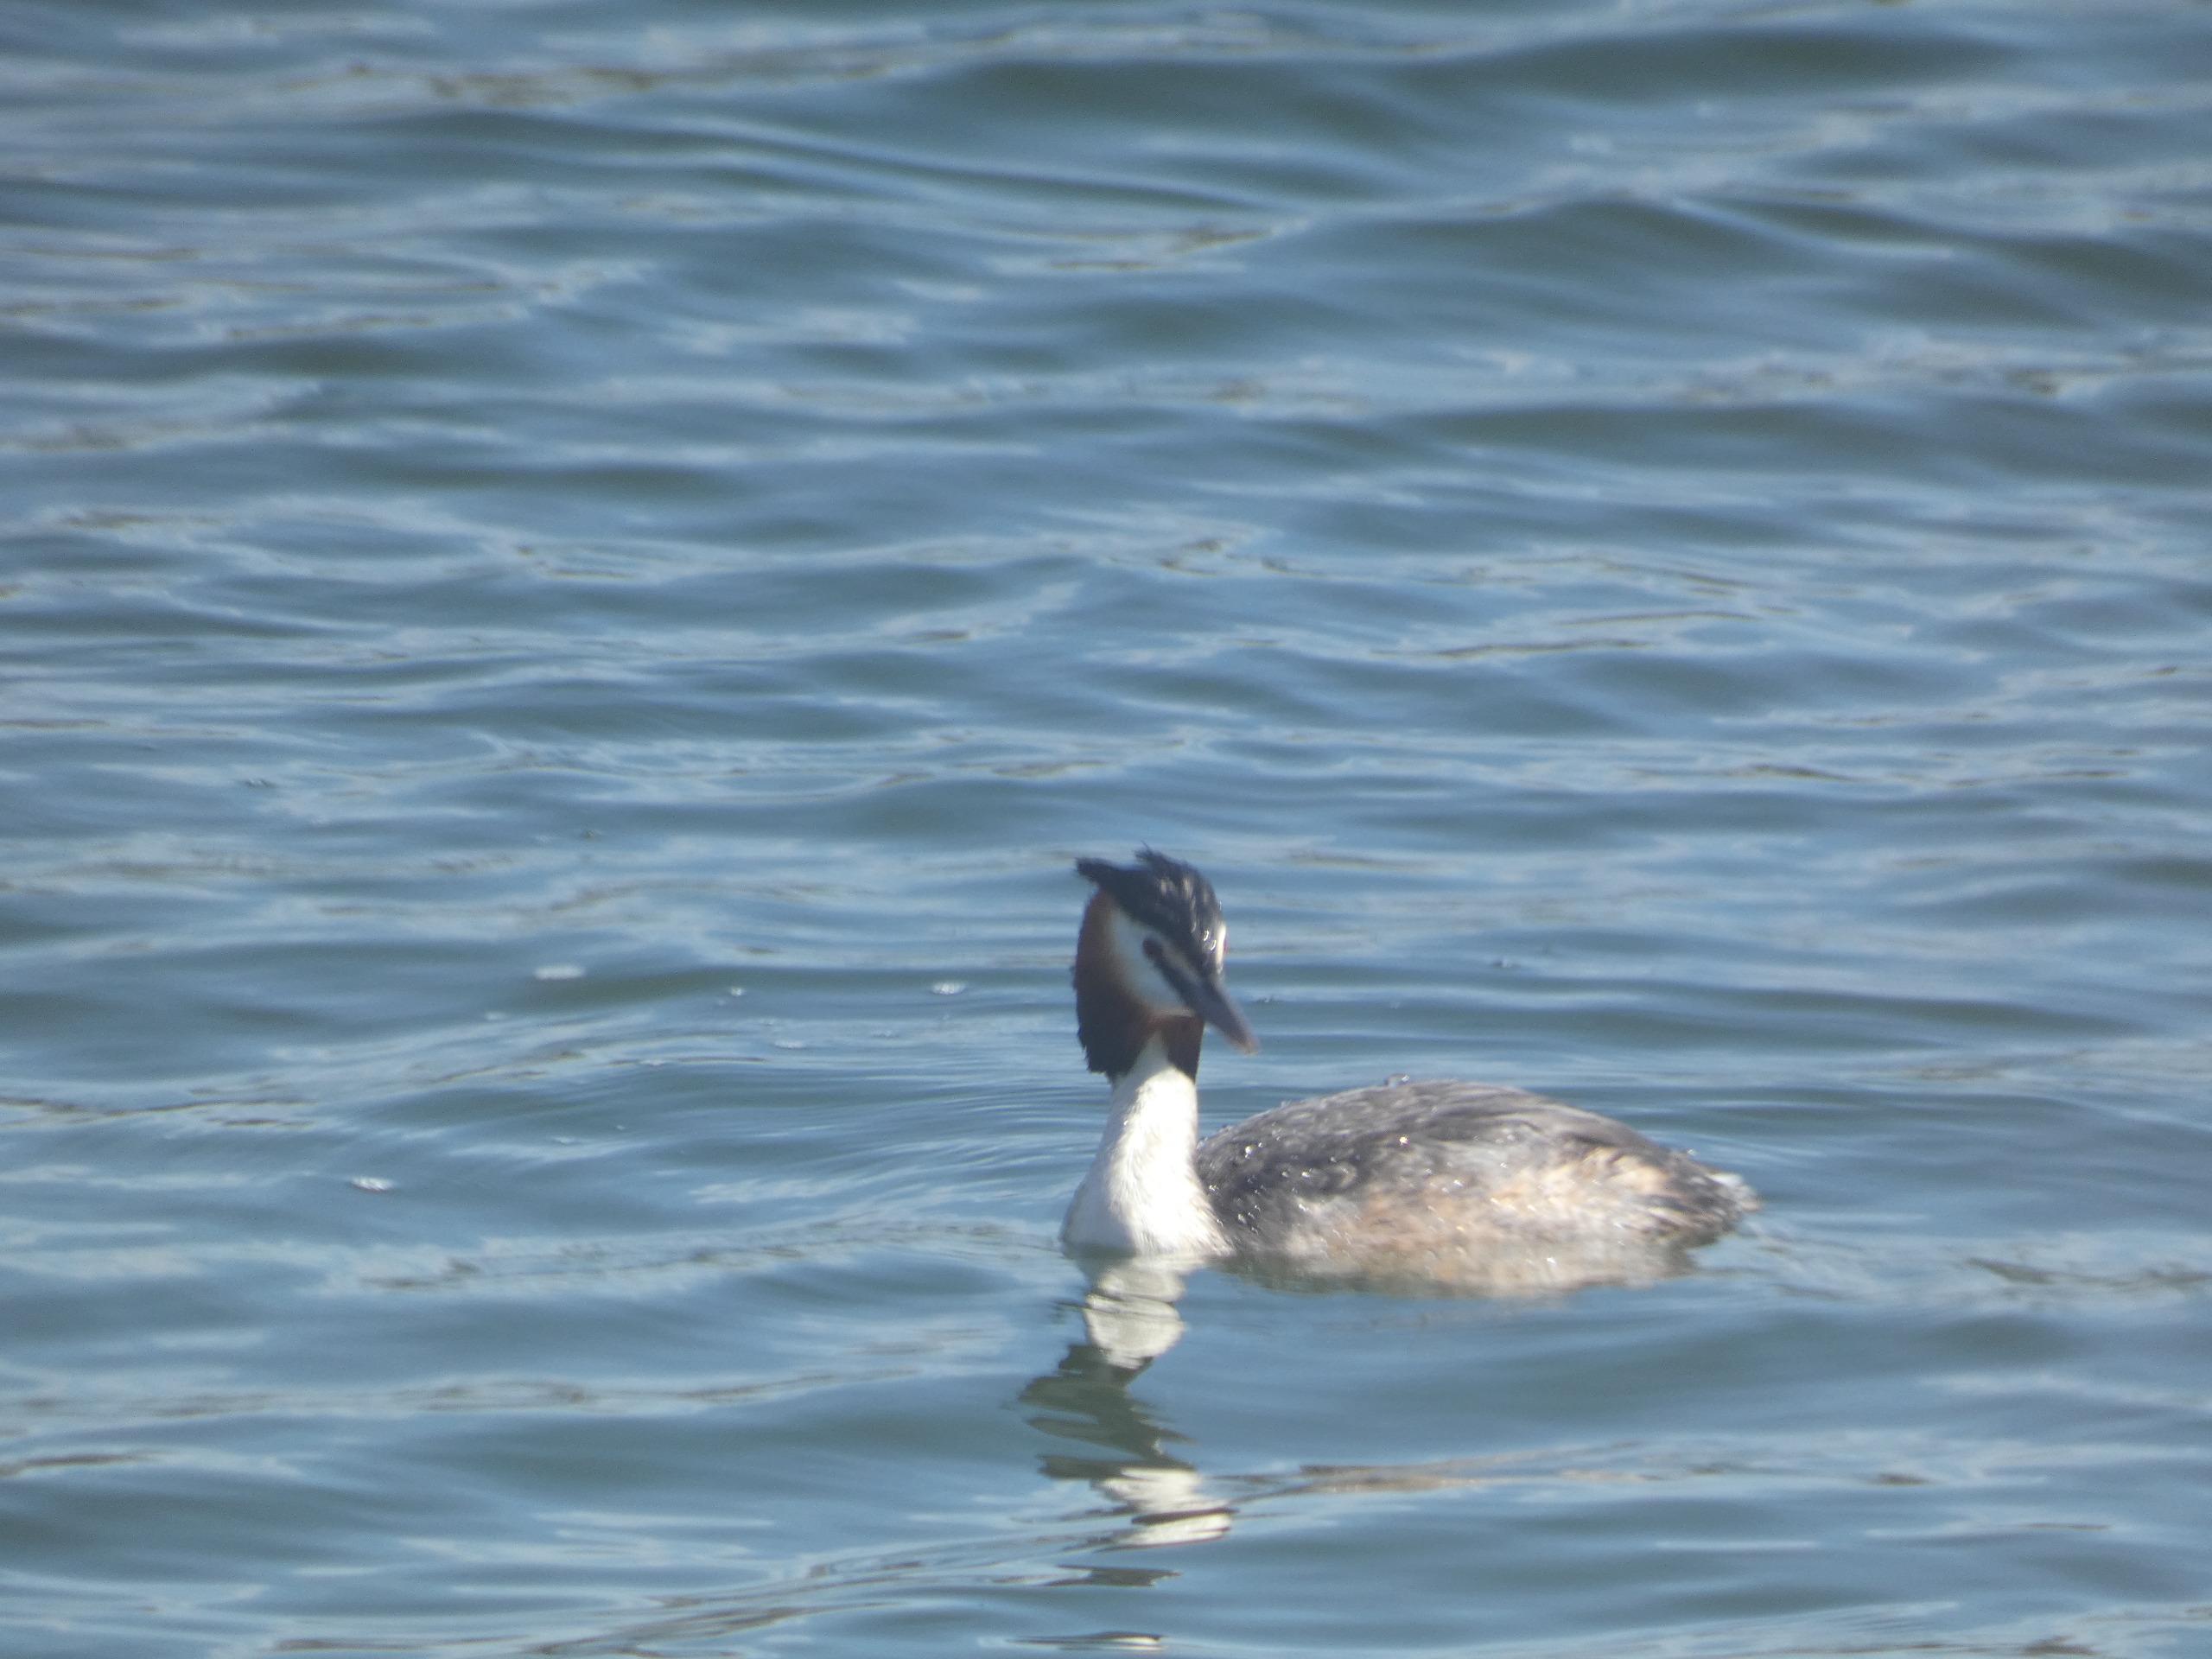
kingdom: Animalia
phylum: Chordata
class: Aves
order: Podicipediformes
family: Podicipedidae
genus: Podiceps
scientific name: Podiceps cristatus
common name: Toppet lappedykker
